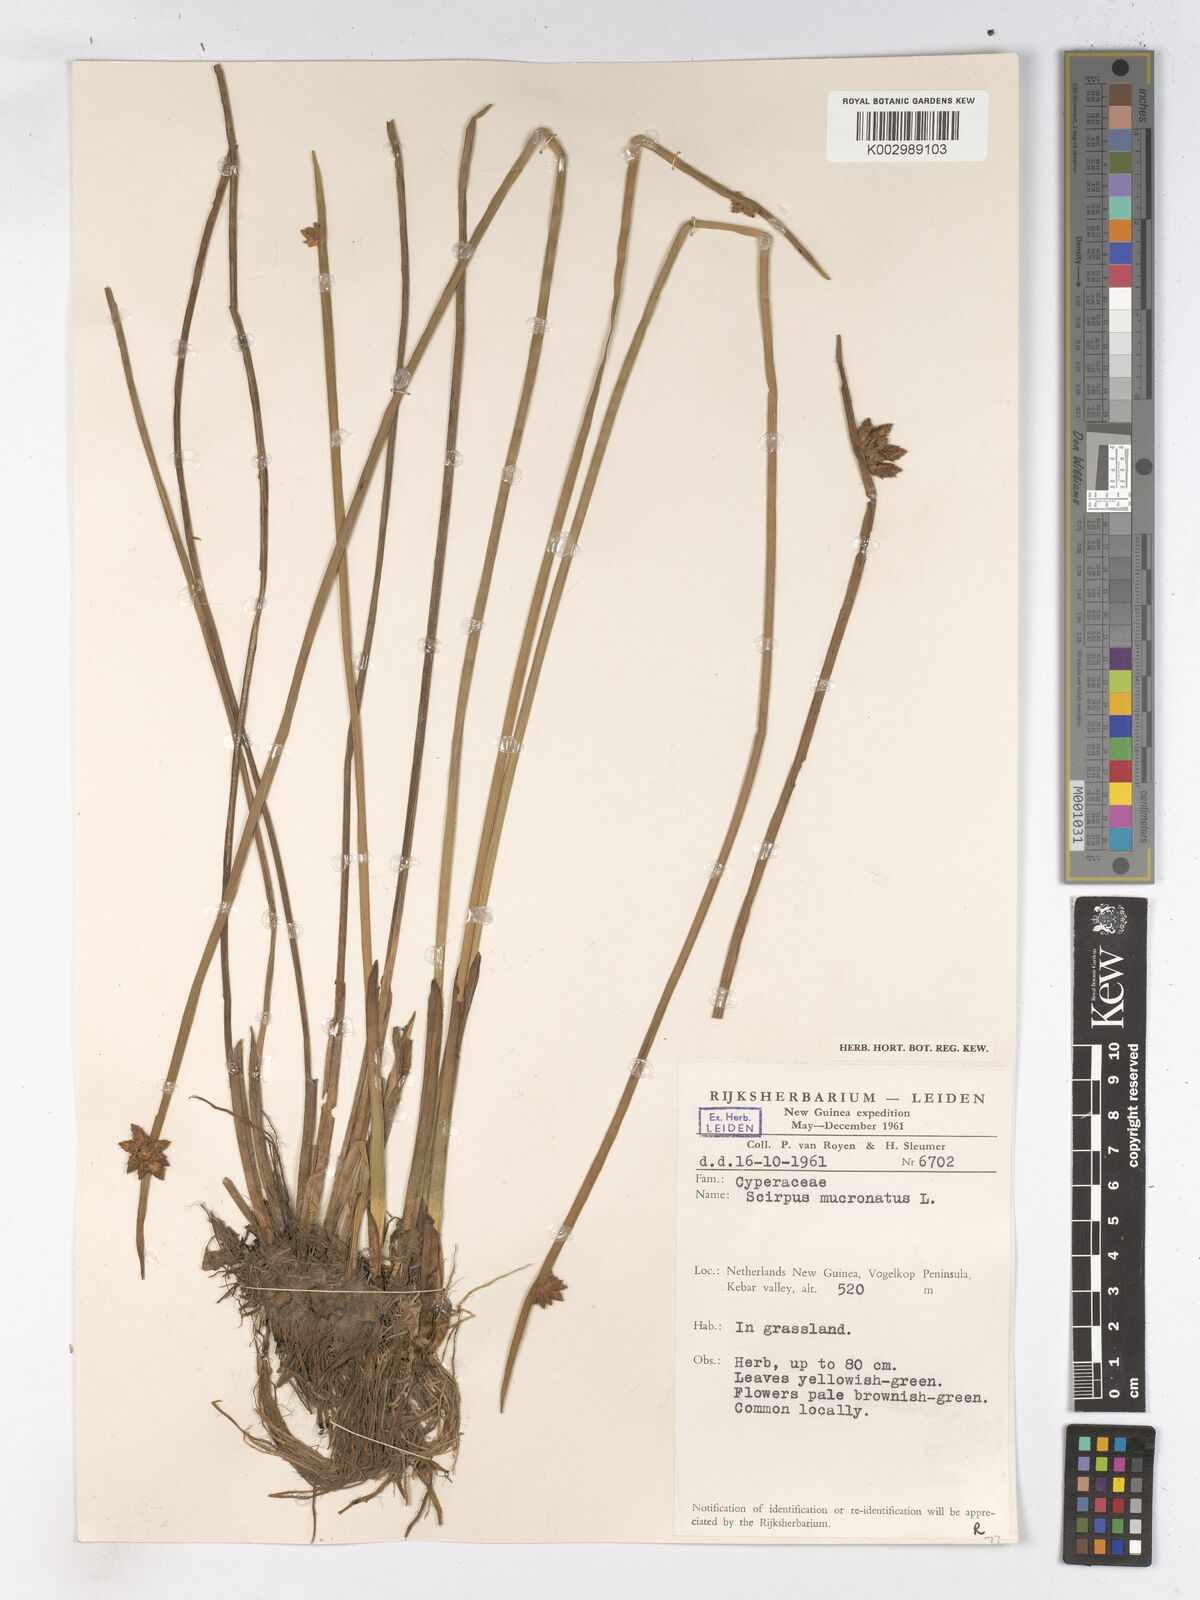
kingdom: Plantae
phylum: Tracheophyta
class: Liliopsida
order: Poales
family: Cyperaceae
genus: Schoenoplectiella
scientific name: Schoenoplectiella mucronata
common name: Bog bulrush
